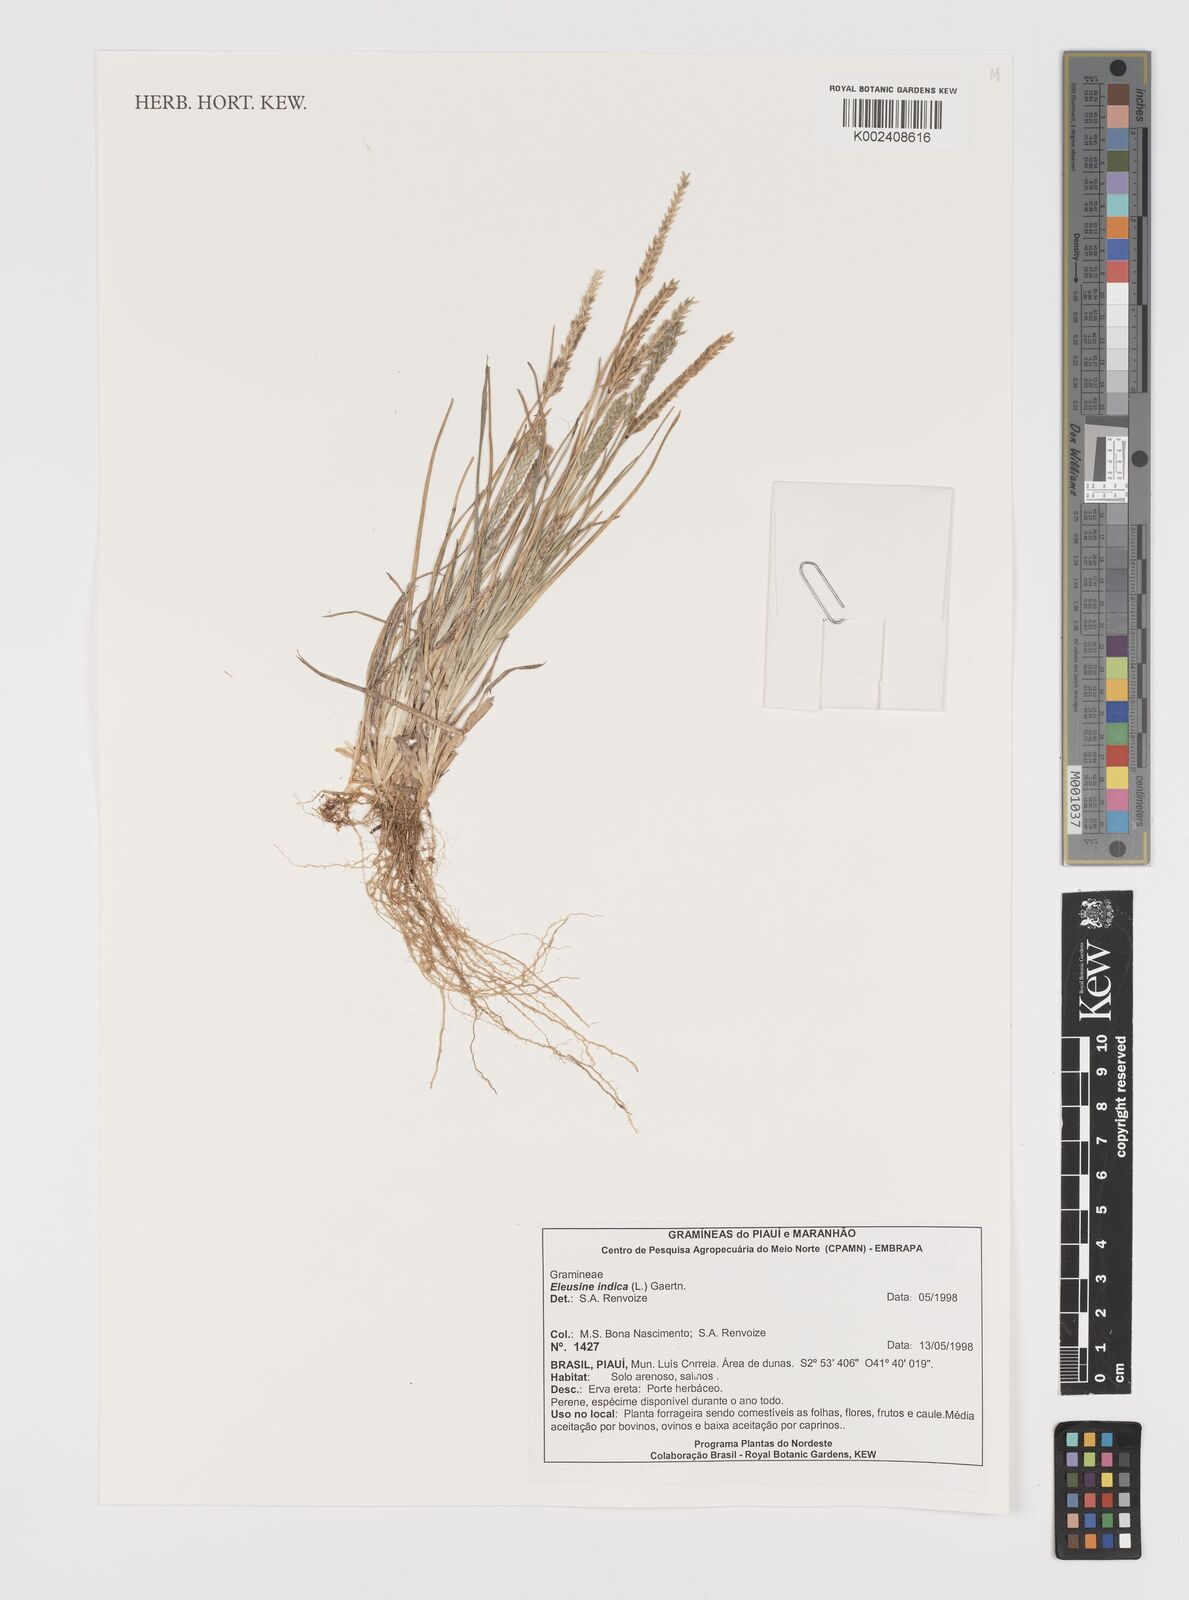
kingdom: Plantae
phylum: Tracheophyta
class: Liliopsida
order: Poales
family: Poaceae
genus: Eleusine
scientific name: Eleusine indica
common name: Yard-grass
